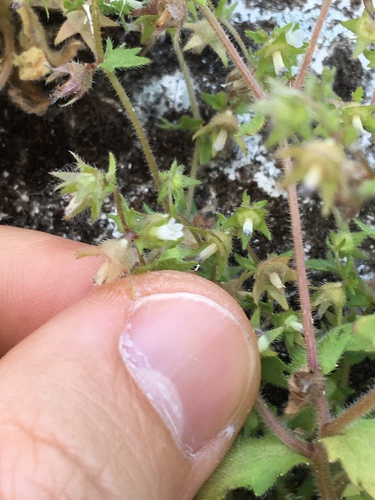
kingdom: Plantae
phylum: Tracheophyta
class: Magnoliopsida
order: Asterales
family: Campanulaceae
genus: Campanula
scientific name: Campanula erinus
